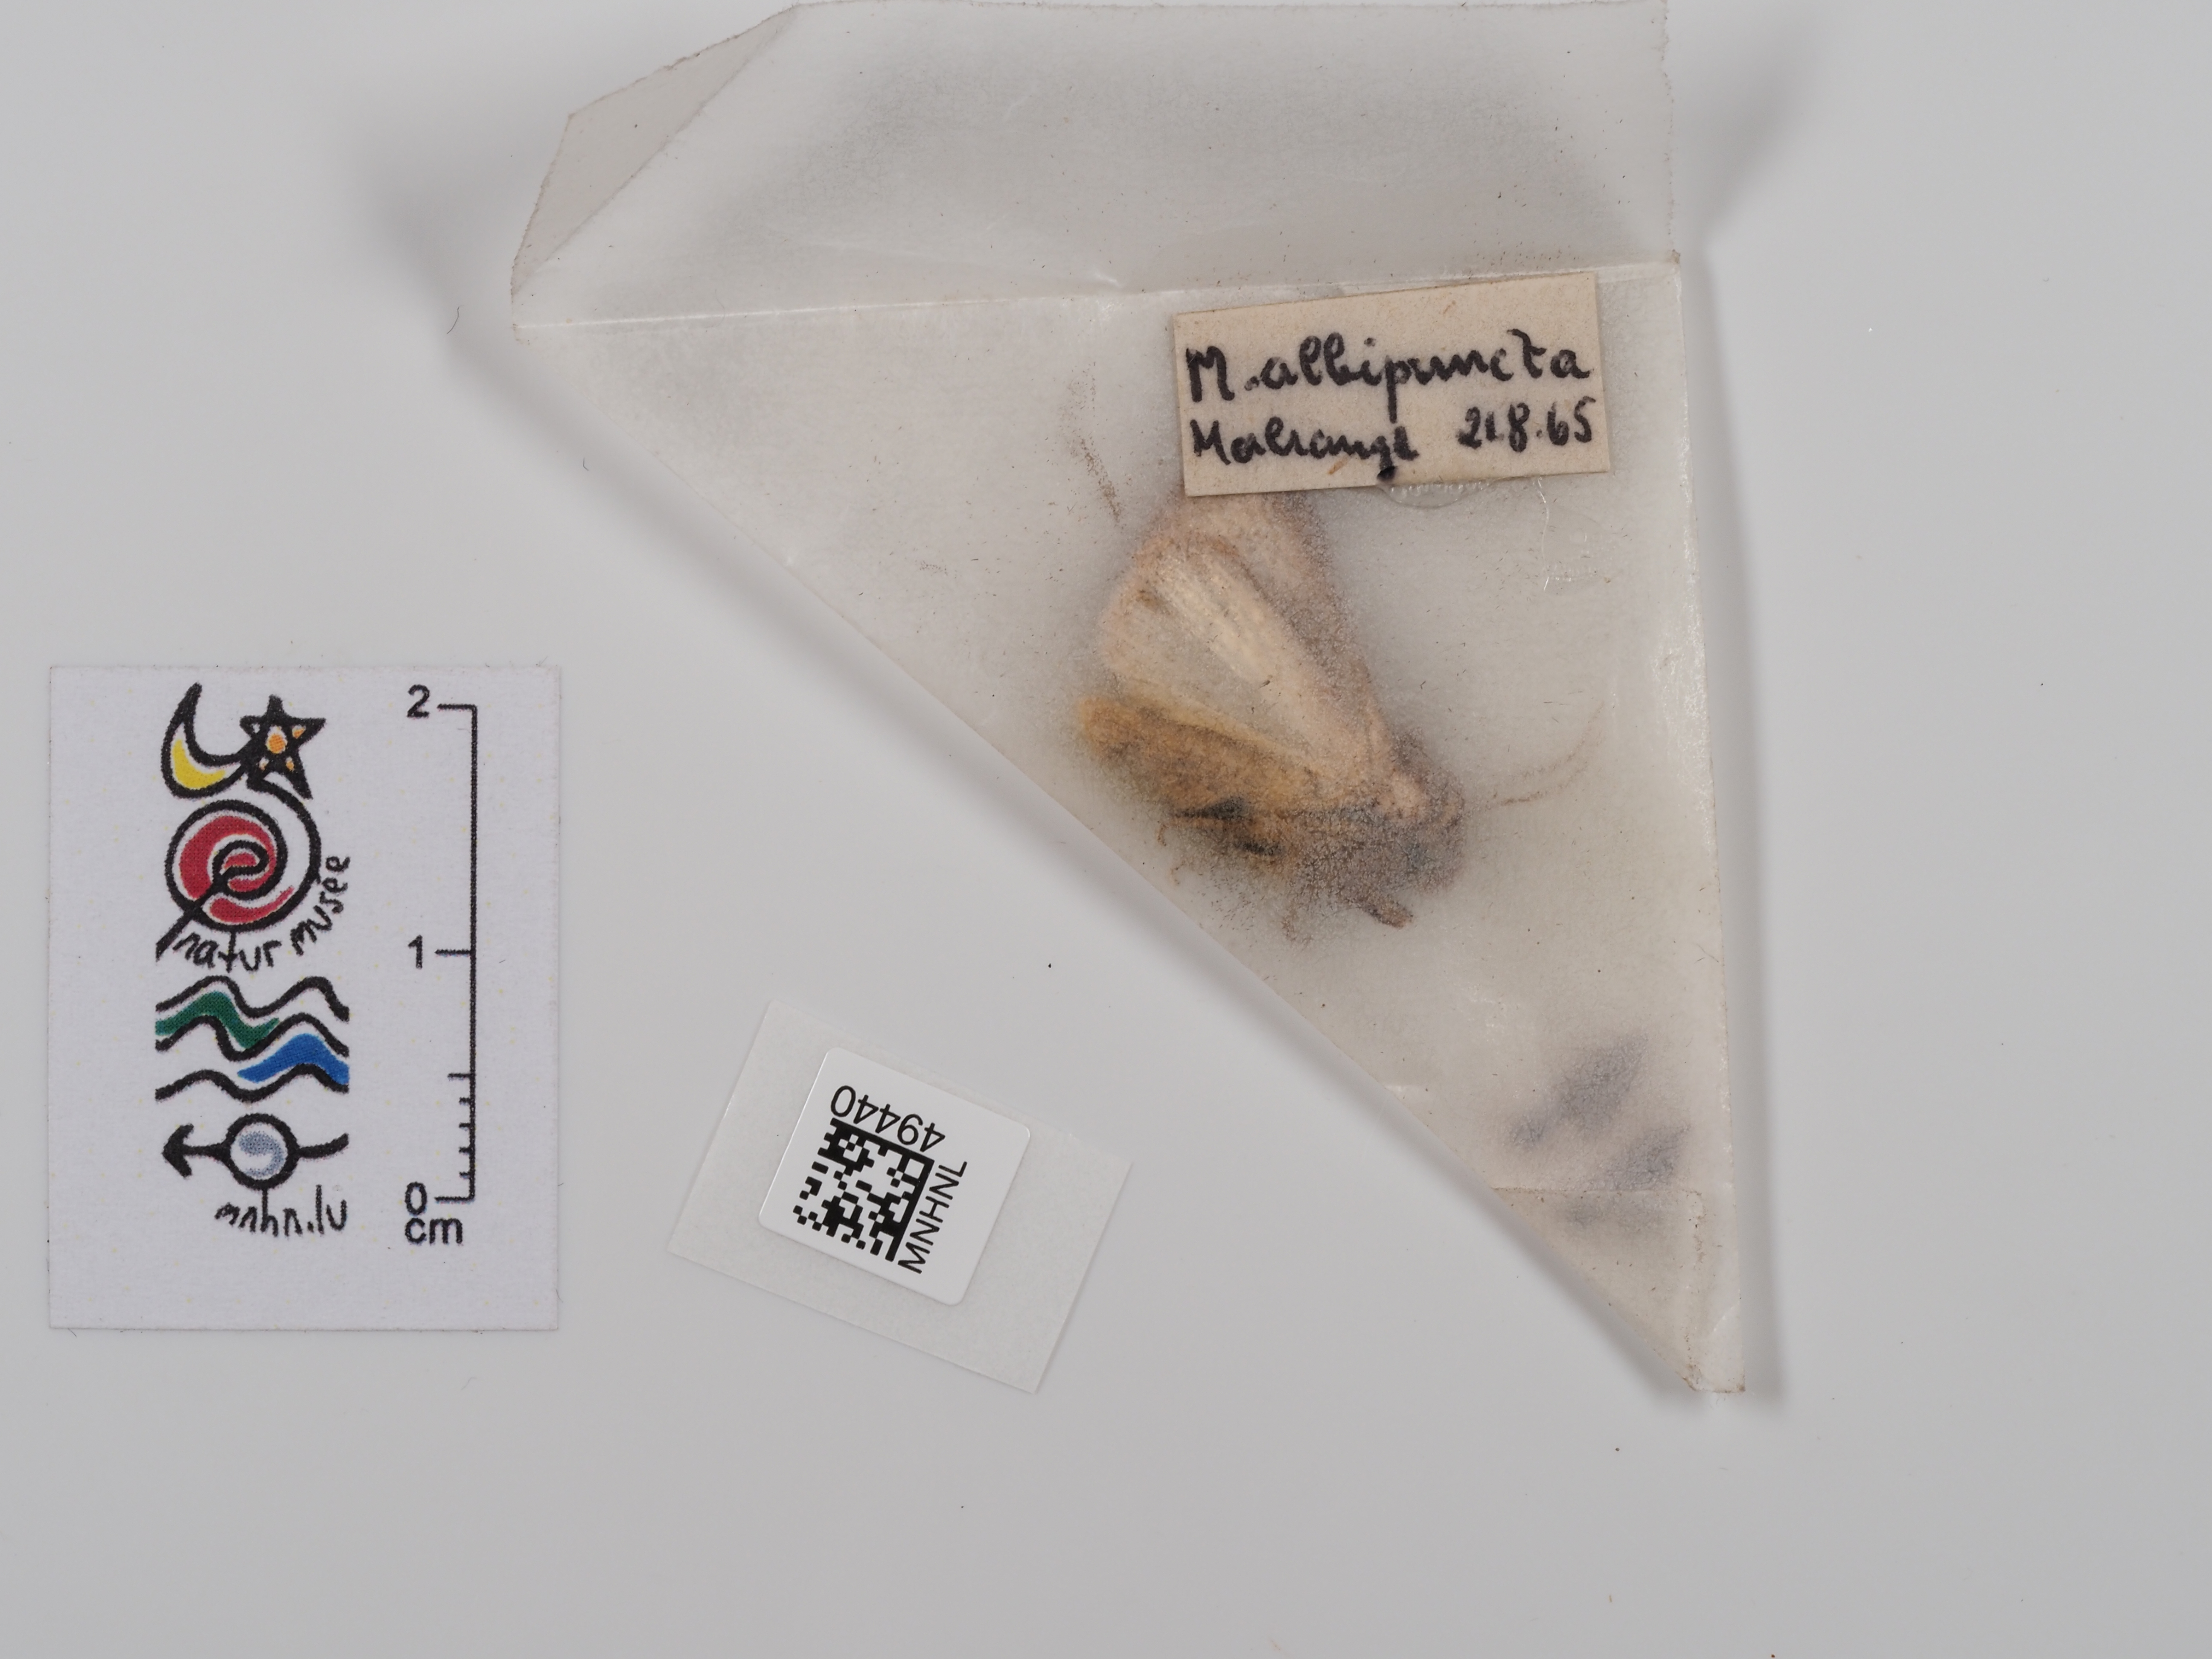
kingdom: Animalia
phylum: Arthropoda
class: Insecta
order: Lepidoptera
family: Noctuidae
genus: Mythimna
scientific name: Mythimna albipuncta
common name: White-point
